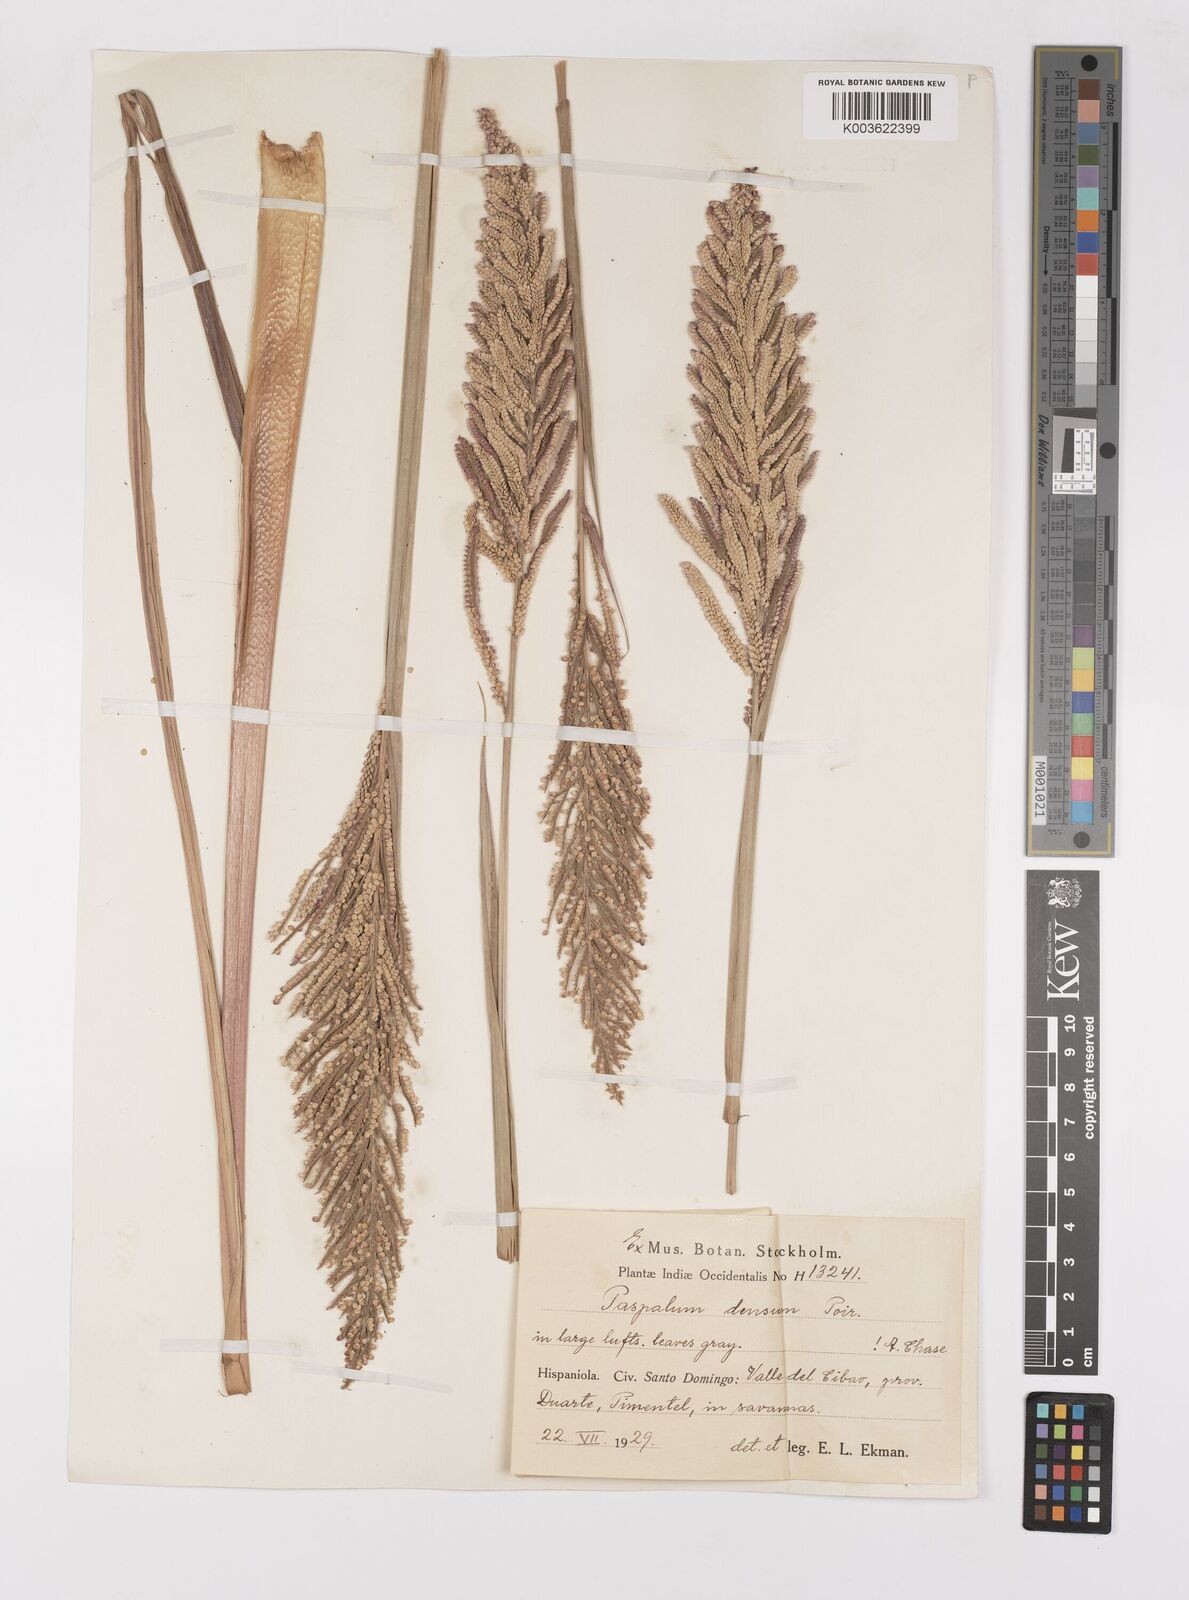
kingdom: Plantae
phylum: Tracheophyta
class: Liliopsida
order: Poales
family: Poaceae
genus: Paspalum
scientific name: Paspalum densum
